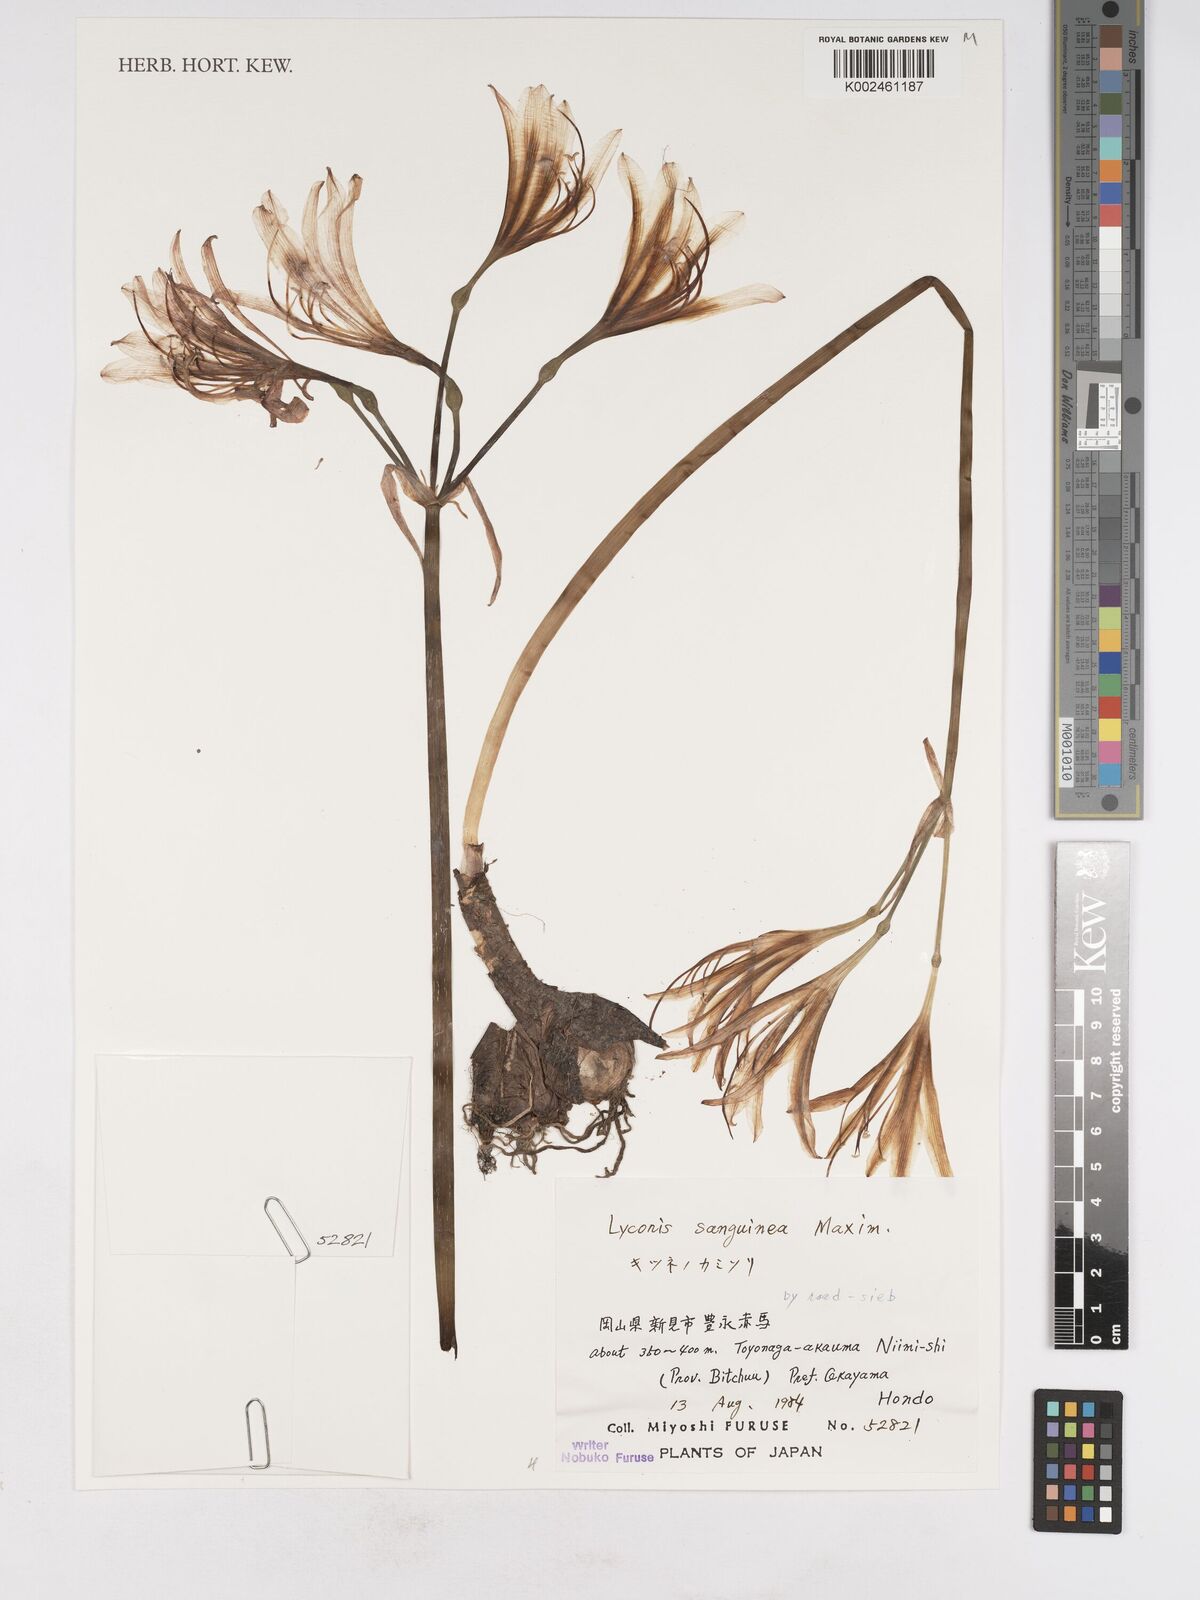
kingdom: Plantae
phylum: Tracheophyta
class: Liliopsida
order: Asparagales
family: Amaryllidaceae
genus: Lycoris
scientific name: Lycoris sanguinea
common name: Spider-lily
